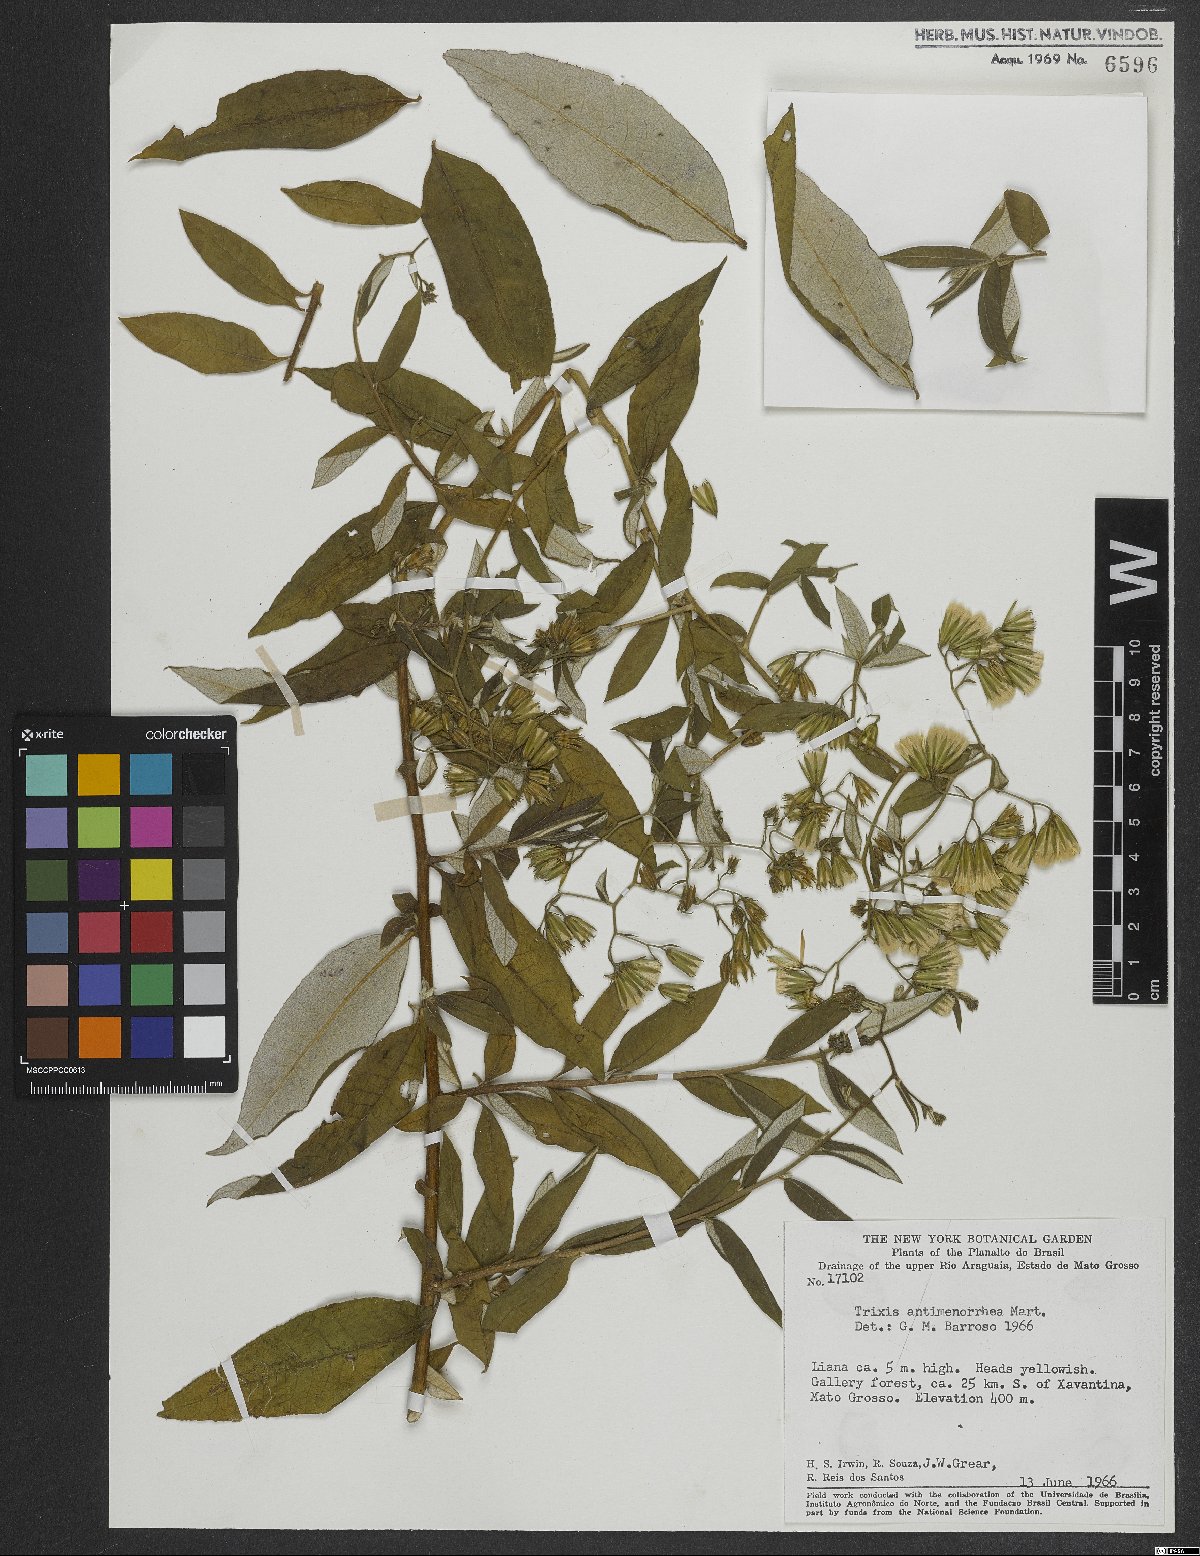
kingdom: Plantae
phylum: Tracheophyta
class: Magnoliopsida
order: Asterales
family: Asteraceae
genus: Trixis
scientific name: Trixis divaricata
